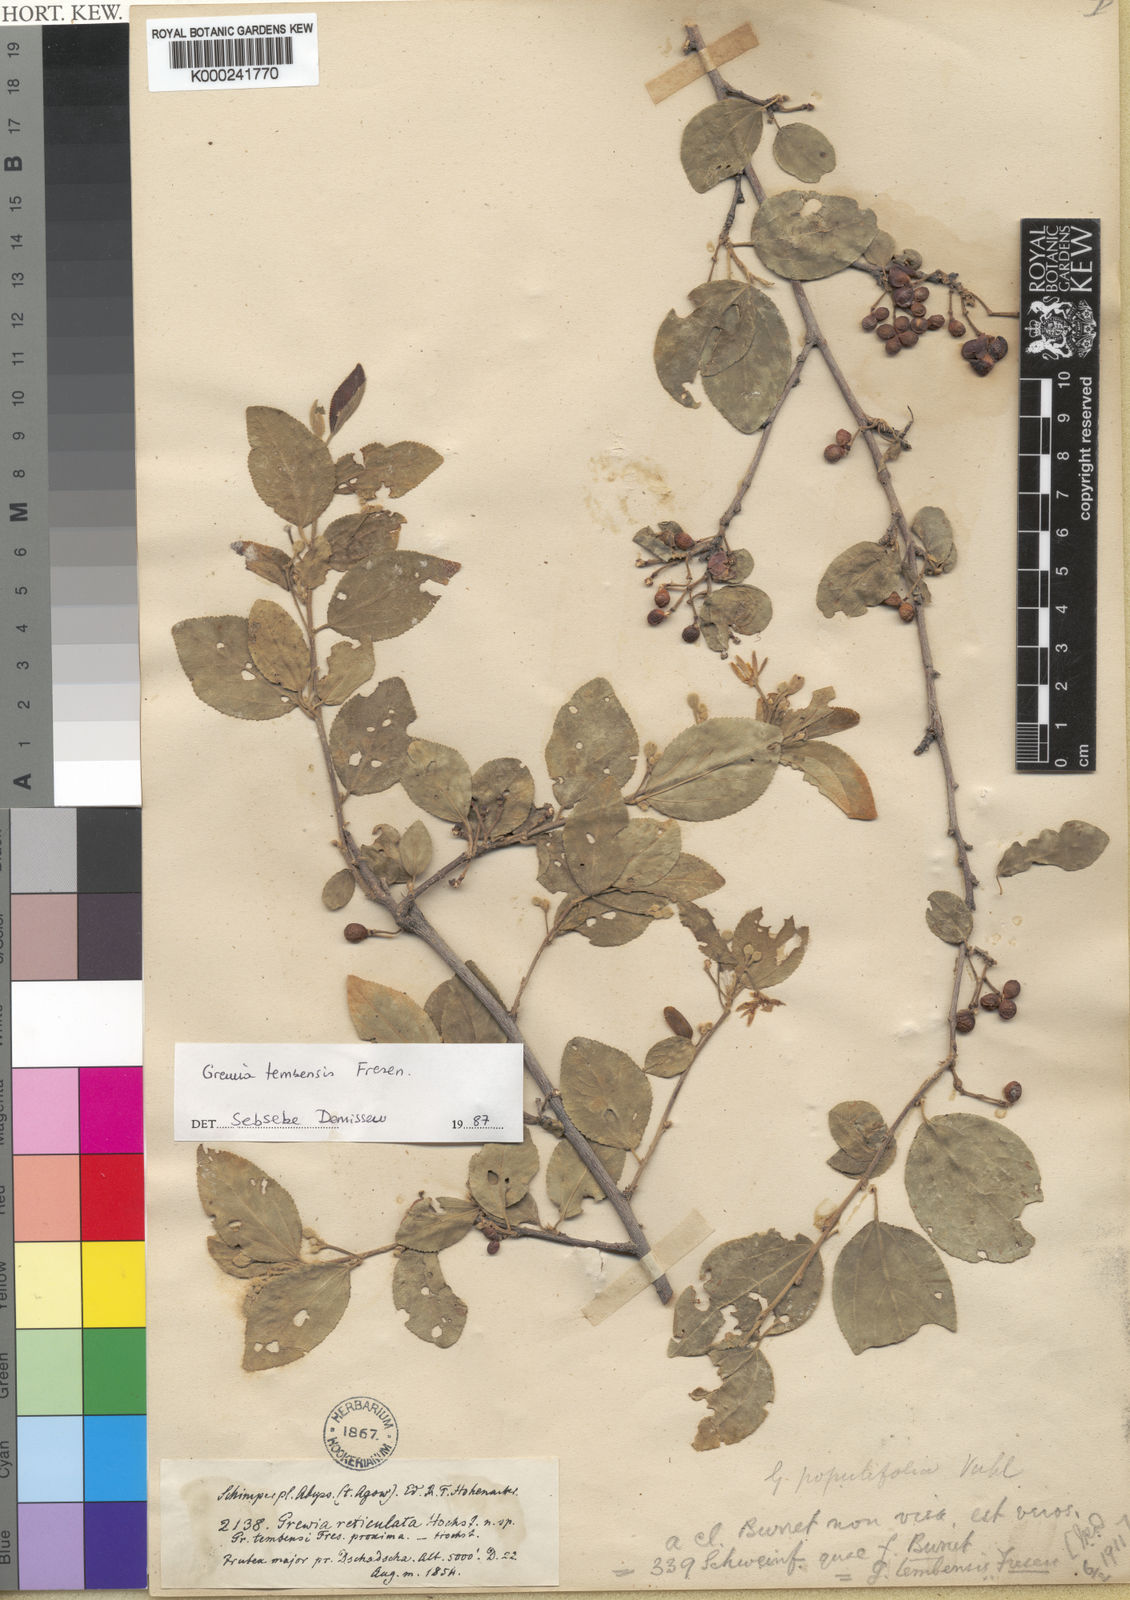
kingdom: Plantae
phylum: Tracheophyta
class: Magnoliopsida
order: Malvales
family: Malvaceae
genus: Grewia
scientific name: Grewia tembensis
